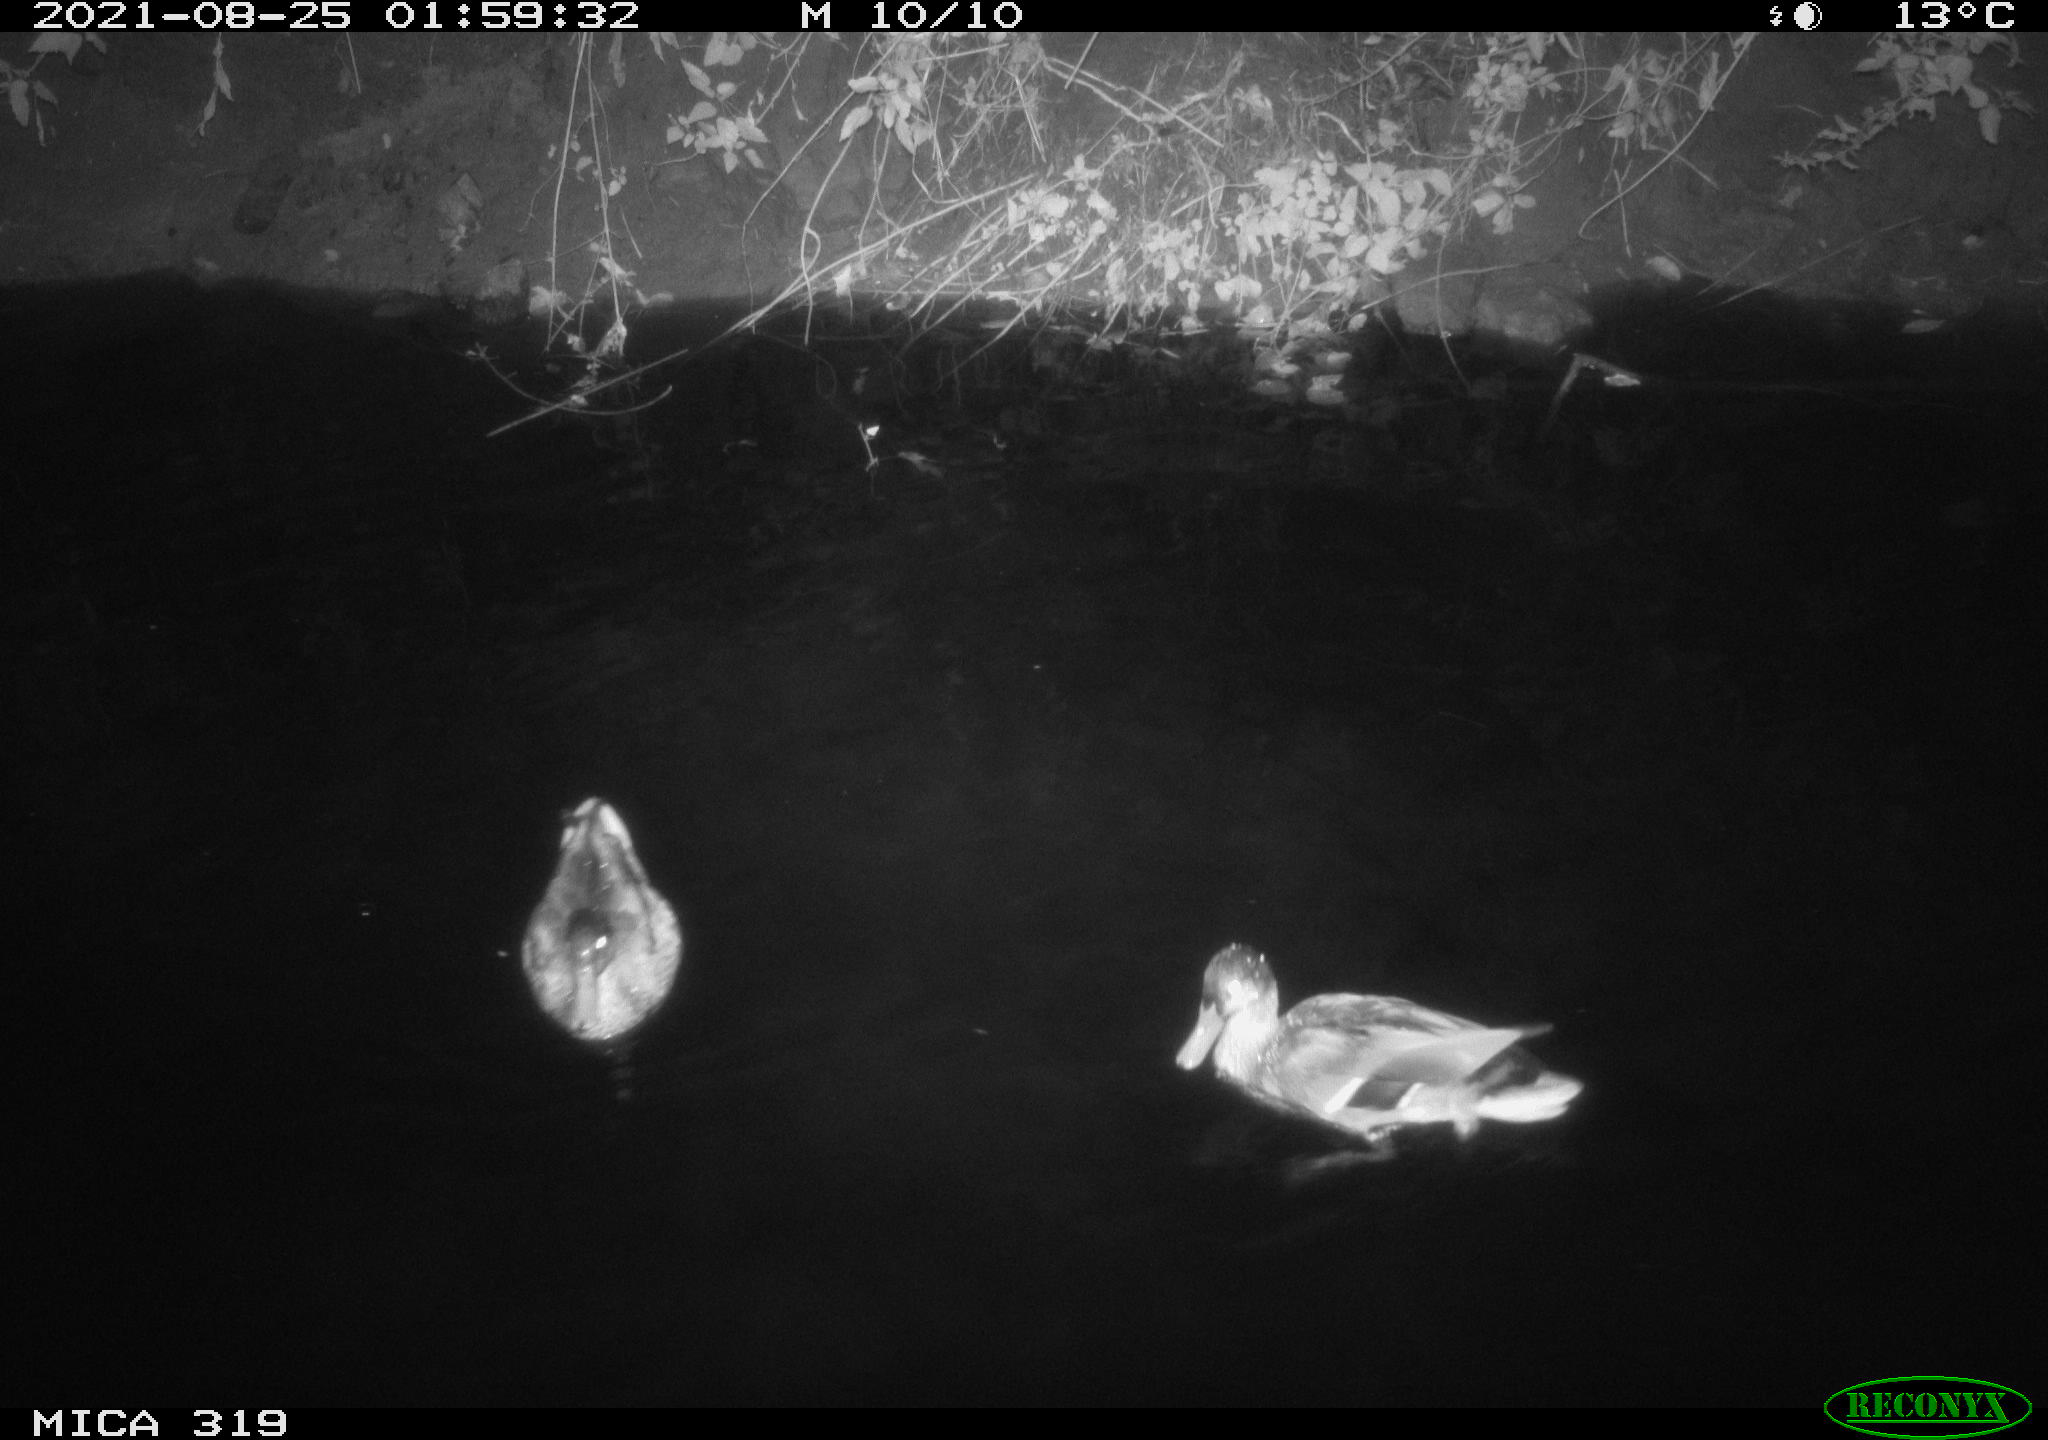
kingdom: Animalia
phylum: Chordata
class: Aves
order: Anseriformes
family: Anatidae
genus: Mareca
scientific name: Mareca strepera
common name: Gadwall
